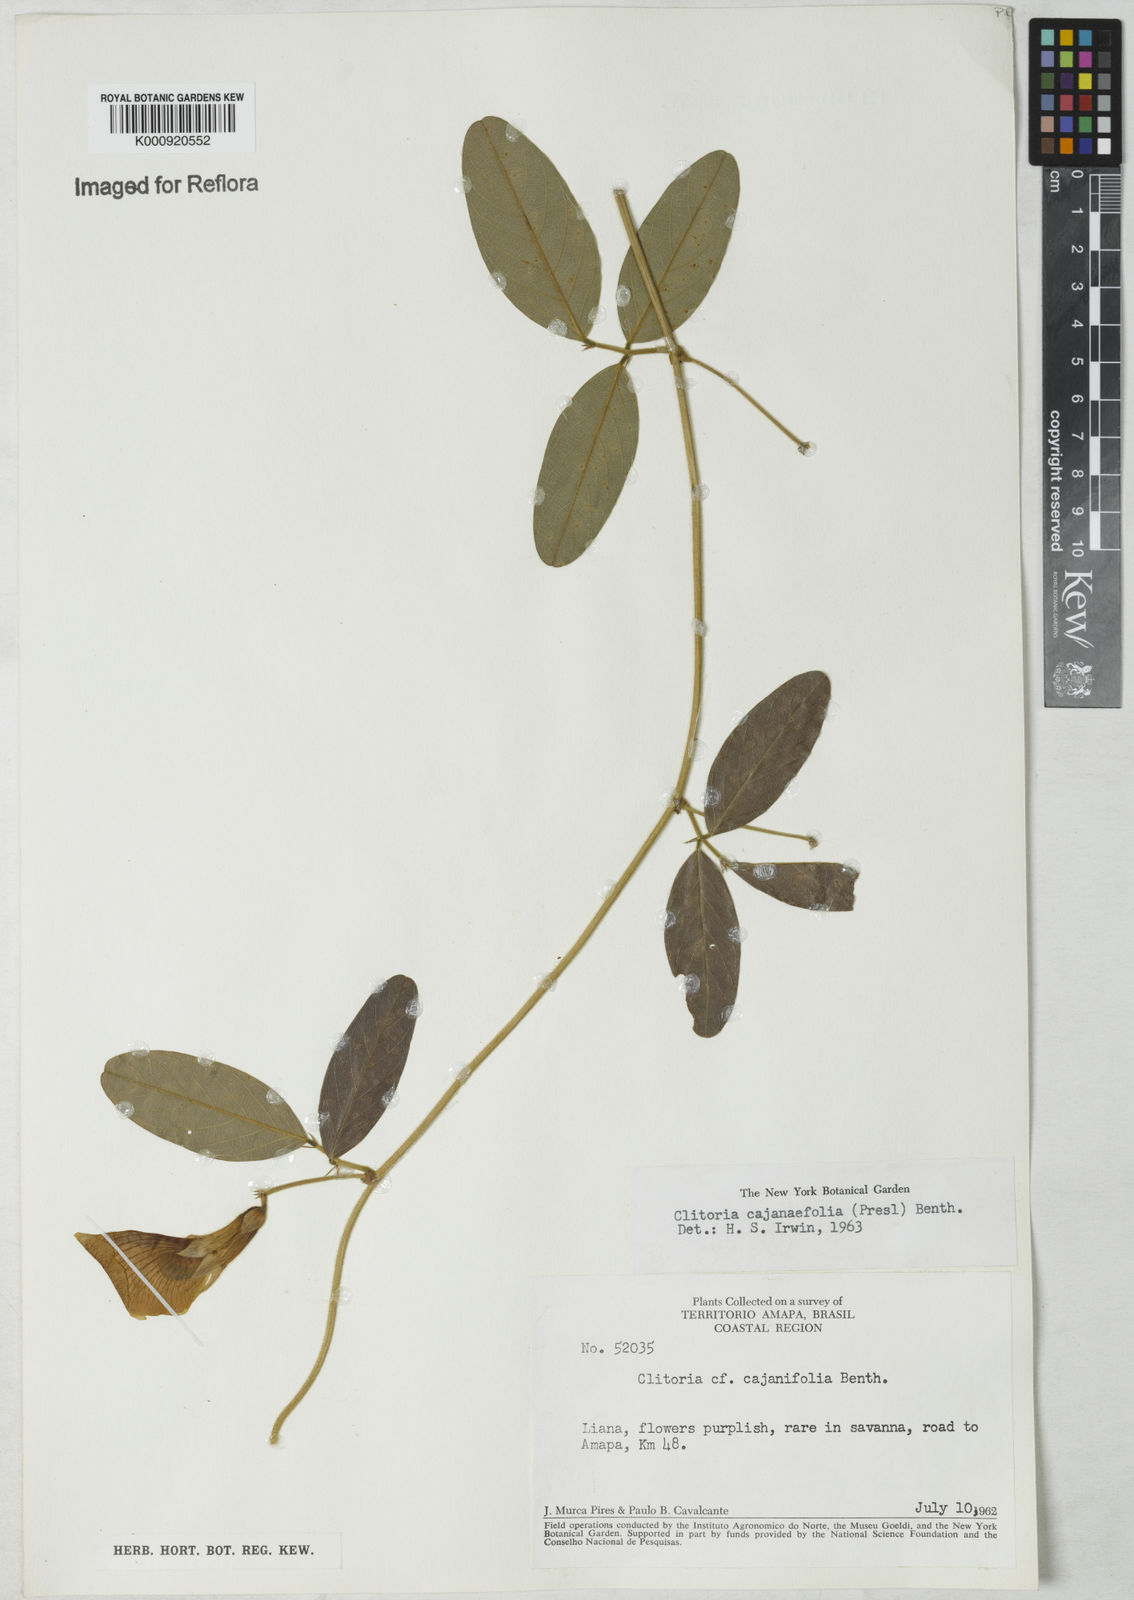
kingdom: Plantae
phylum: Tracheophyta
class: Magnoliopsida
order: Fabales
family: Fabaceae
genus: Clitoria
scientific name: Clitoria laurifolia
